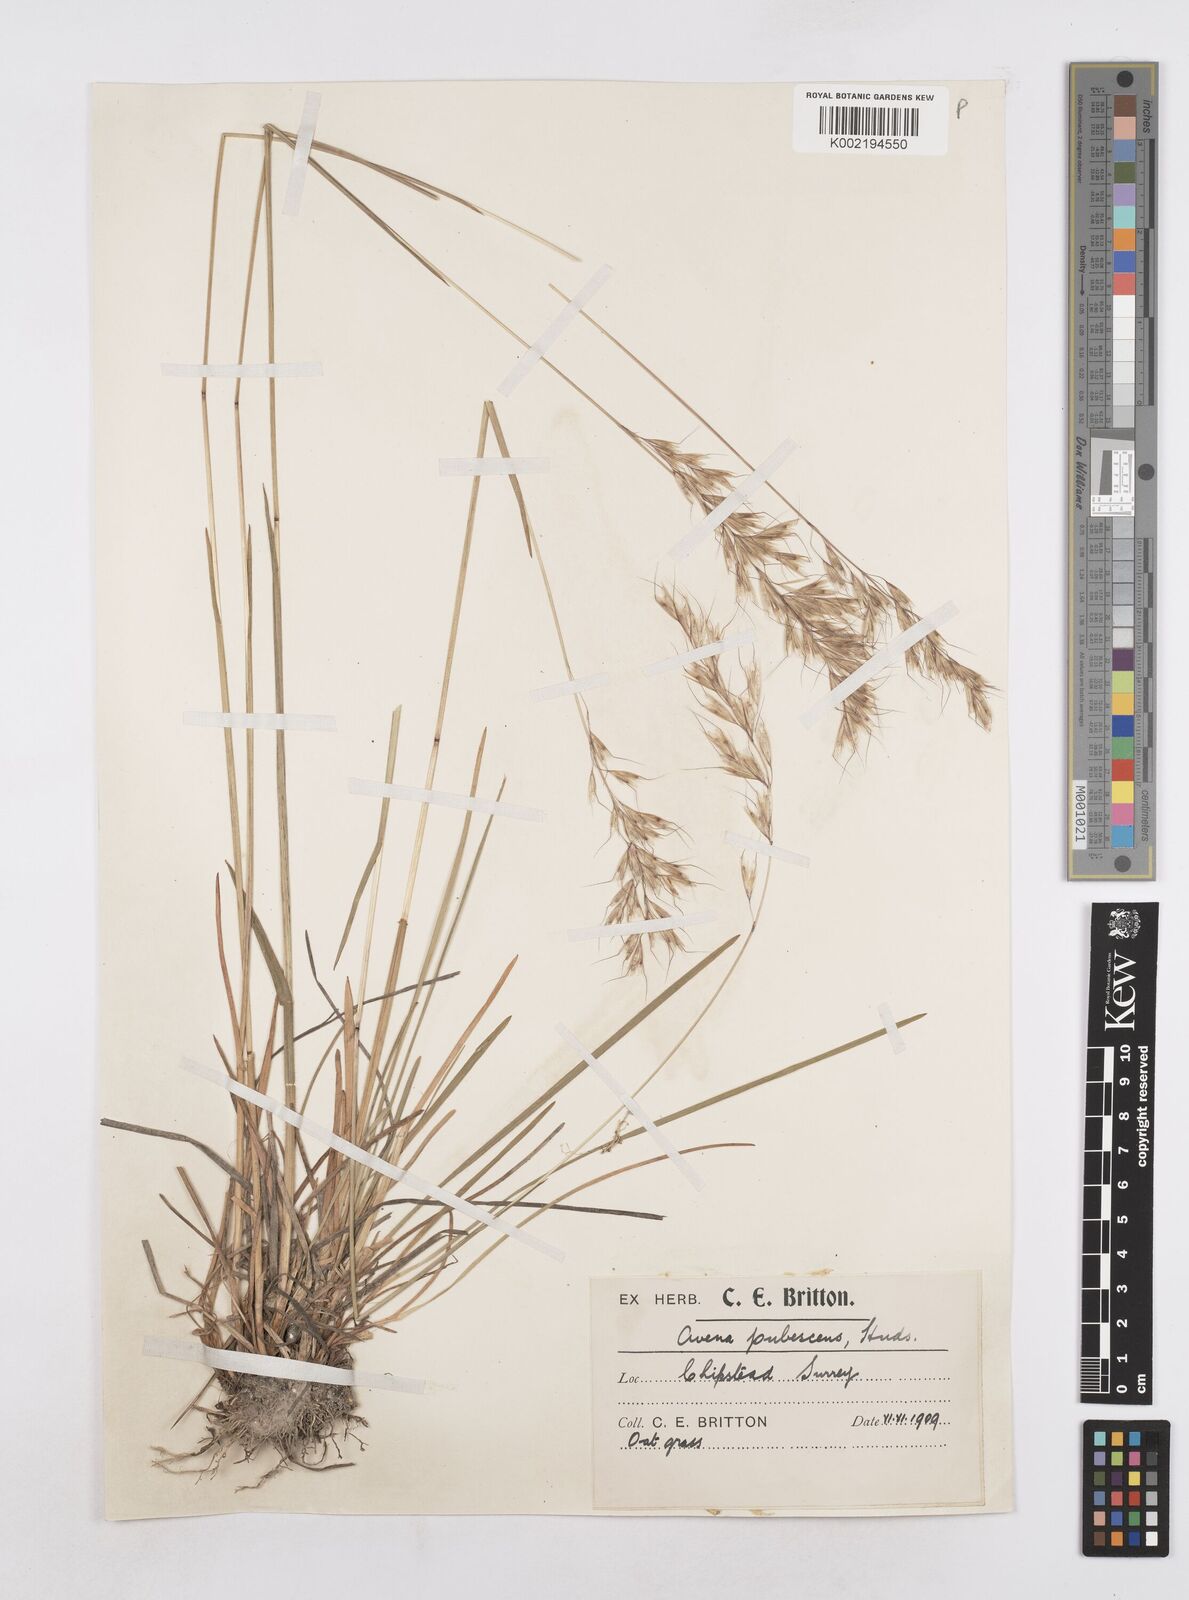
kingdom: Plantae
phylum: Tracheophyta
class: Liliopsida
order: Poales
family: Poaceae
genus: Avenula
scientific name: Avenula pubescens
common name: Downy alpine oatgrass
